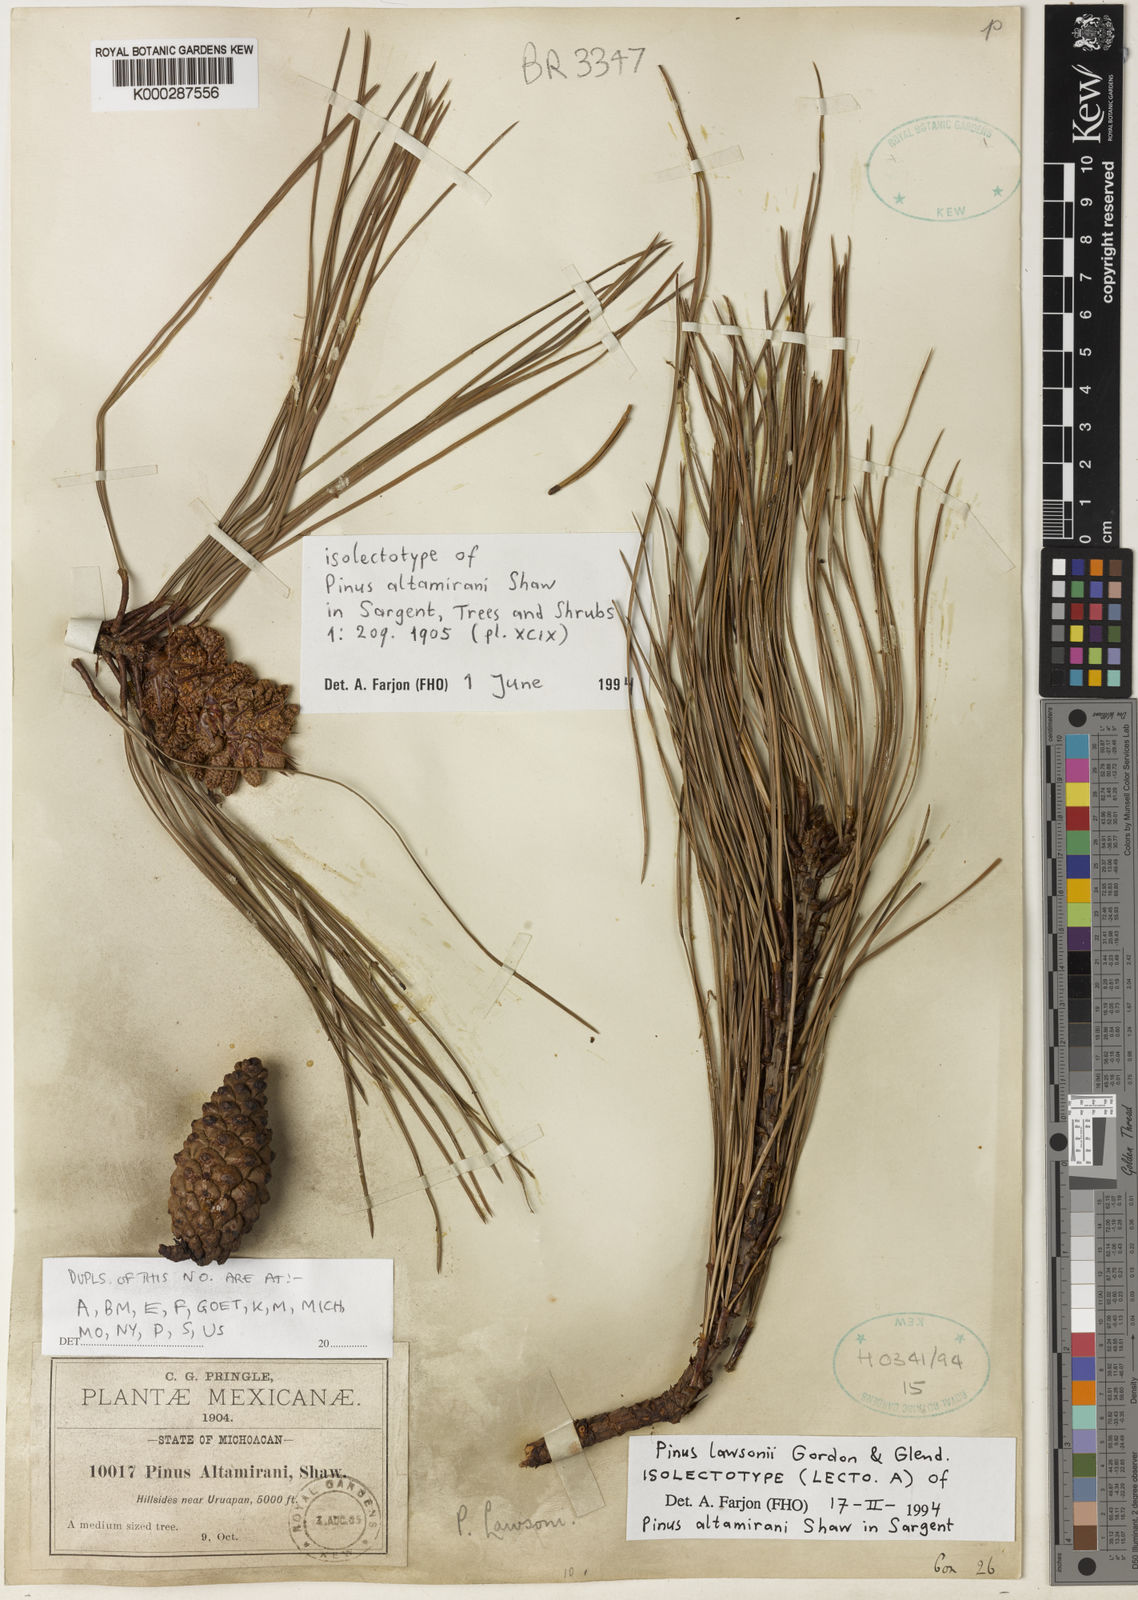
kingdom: Plantae
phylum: Tracheophyta
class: Pinopsida
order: Pinales
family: Pinaceae
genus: Pinus
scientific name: Pinus lawsonii
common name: Lawson's pine
